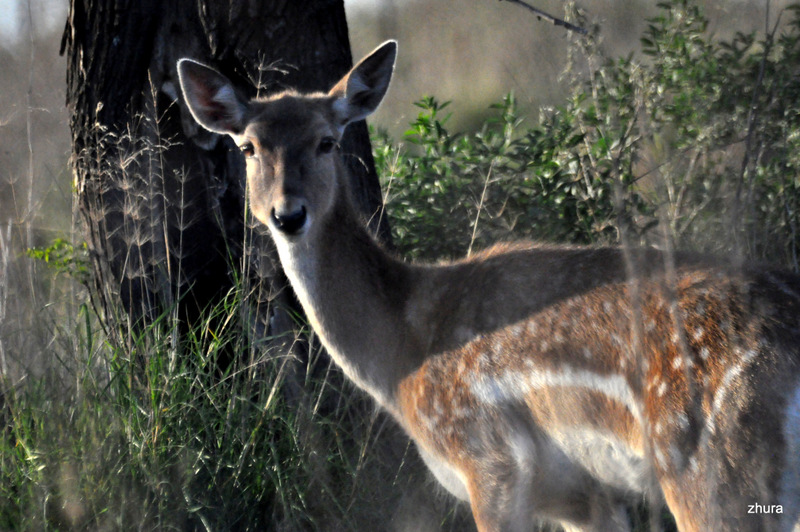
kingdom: Animalia
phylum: Chordata
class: Mammalia
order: Artiodactyla
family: Cervidae
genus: Dama
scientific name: Dama dama
